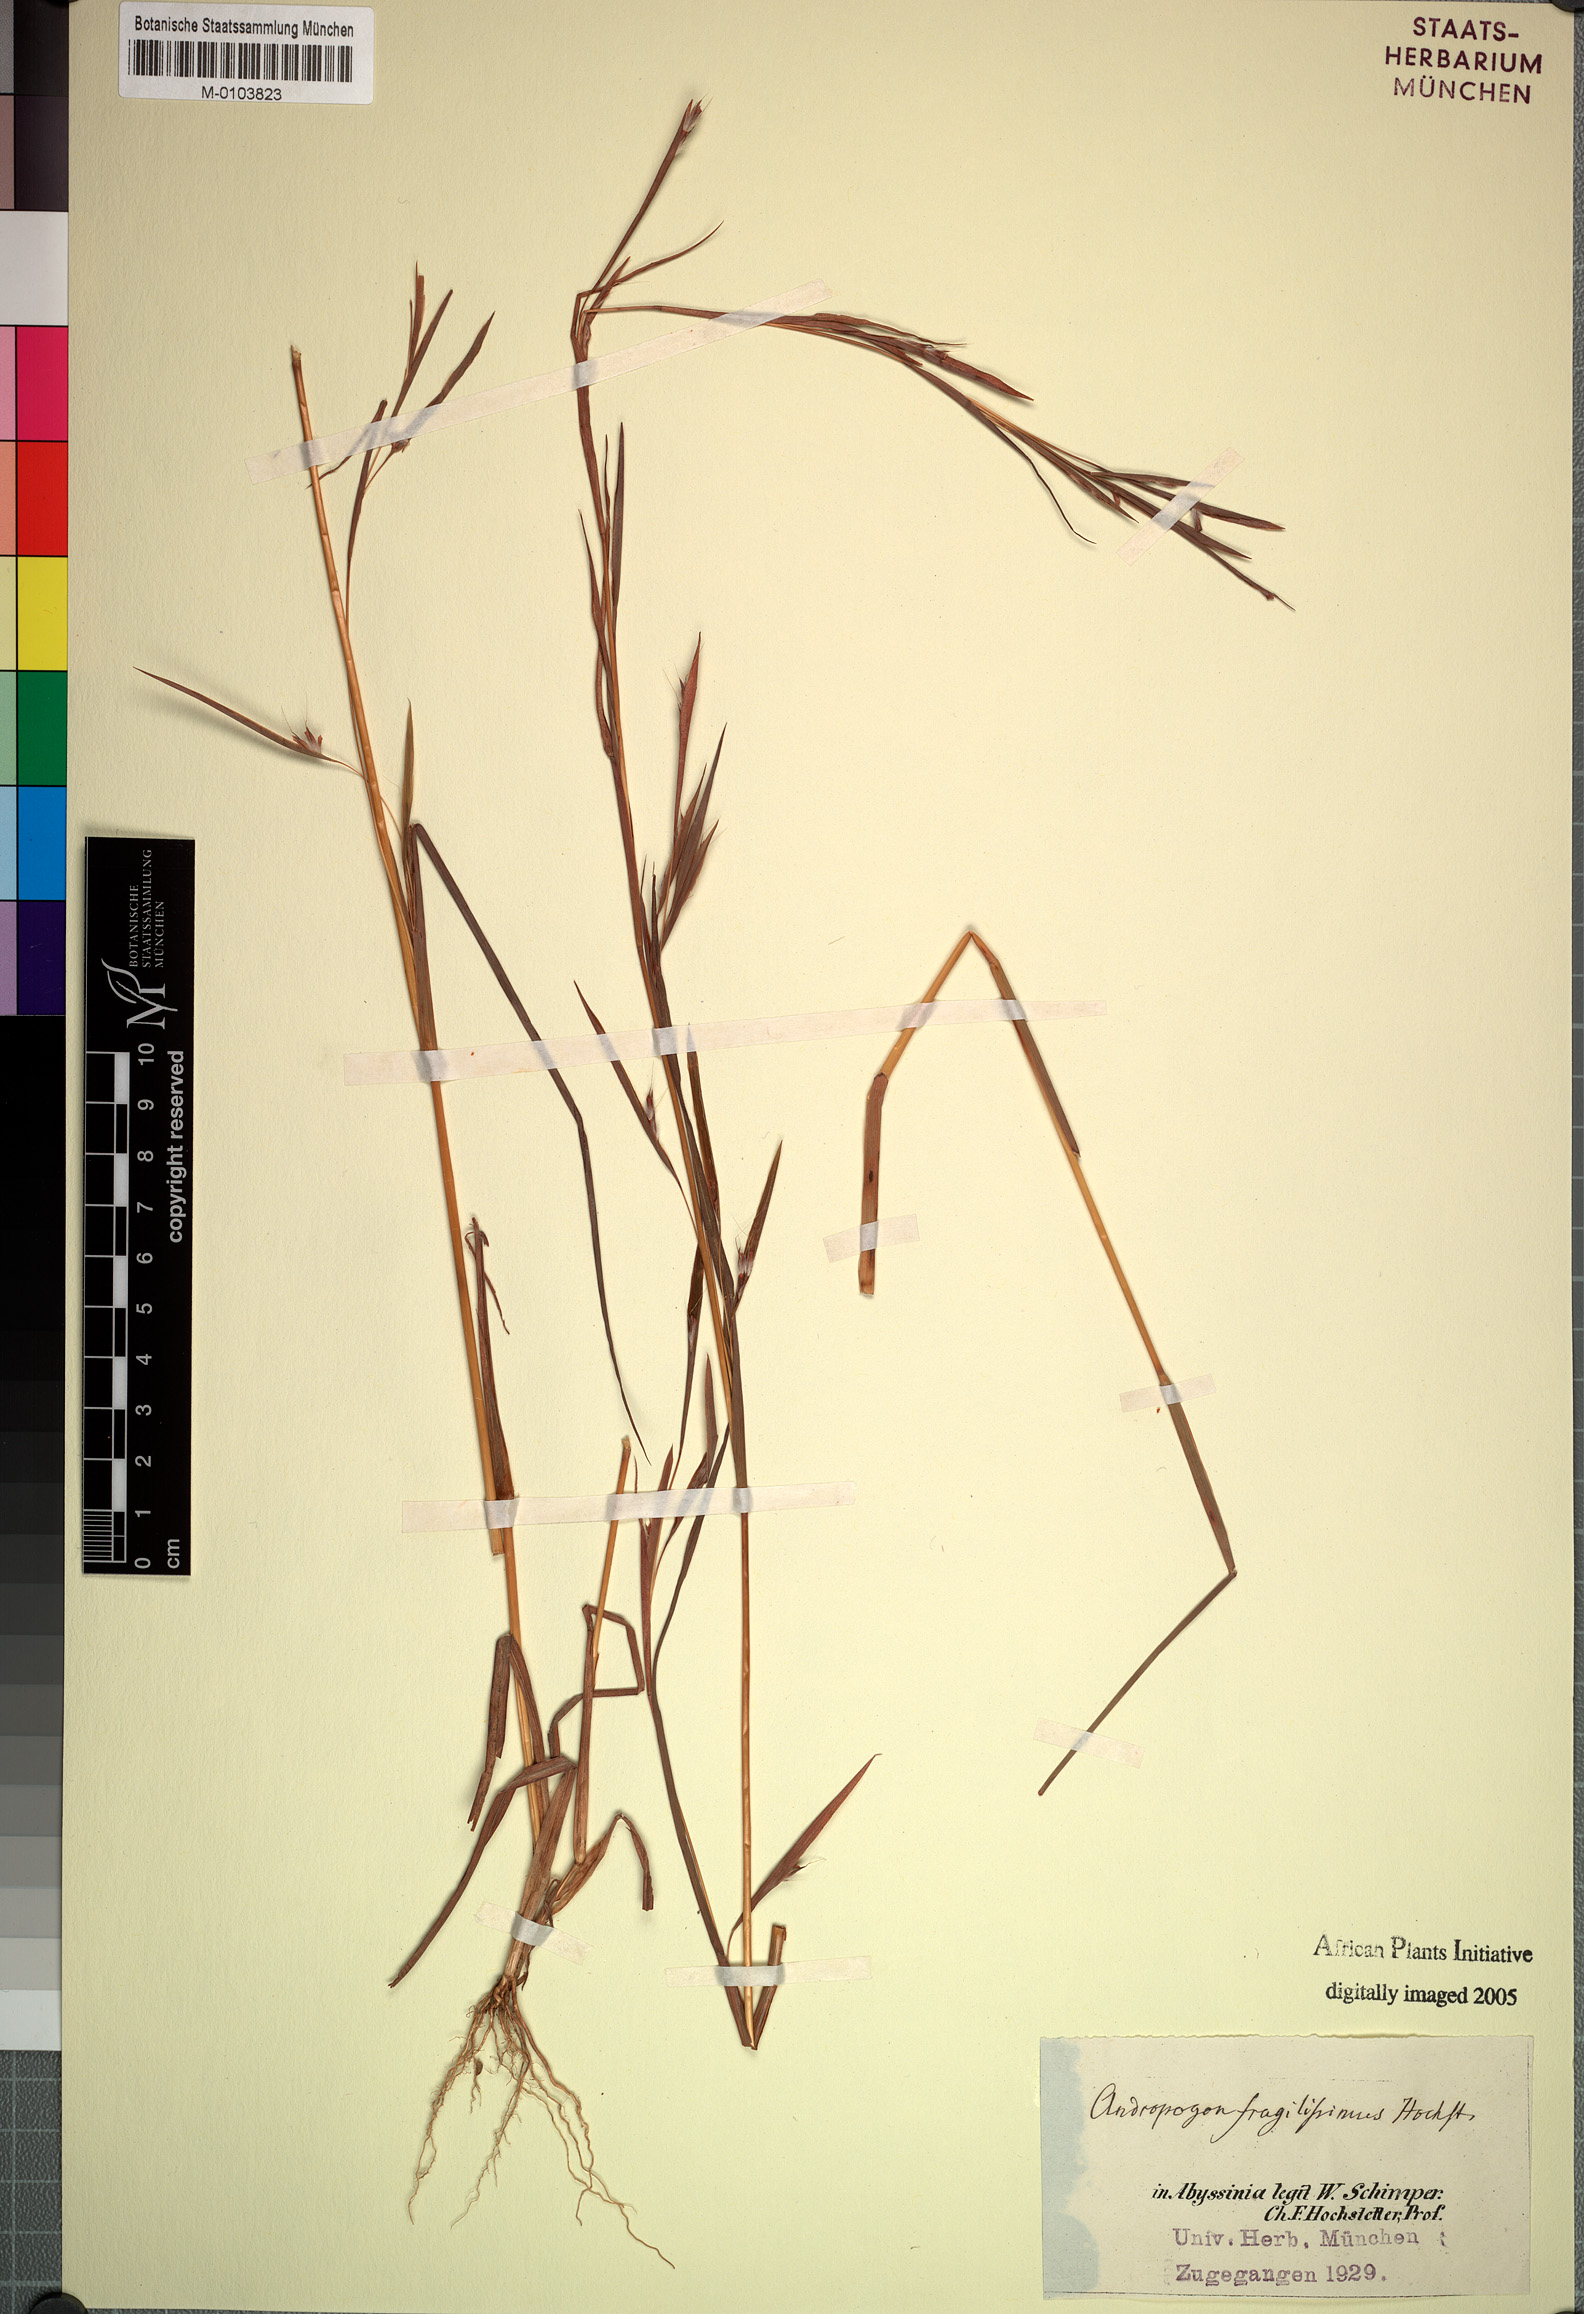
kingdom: Plantae
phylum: Tracheophyta
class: Liliopsida
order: Poales
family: Poaceae
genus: Schizachyrium
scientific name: Schizachyrium exile
